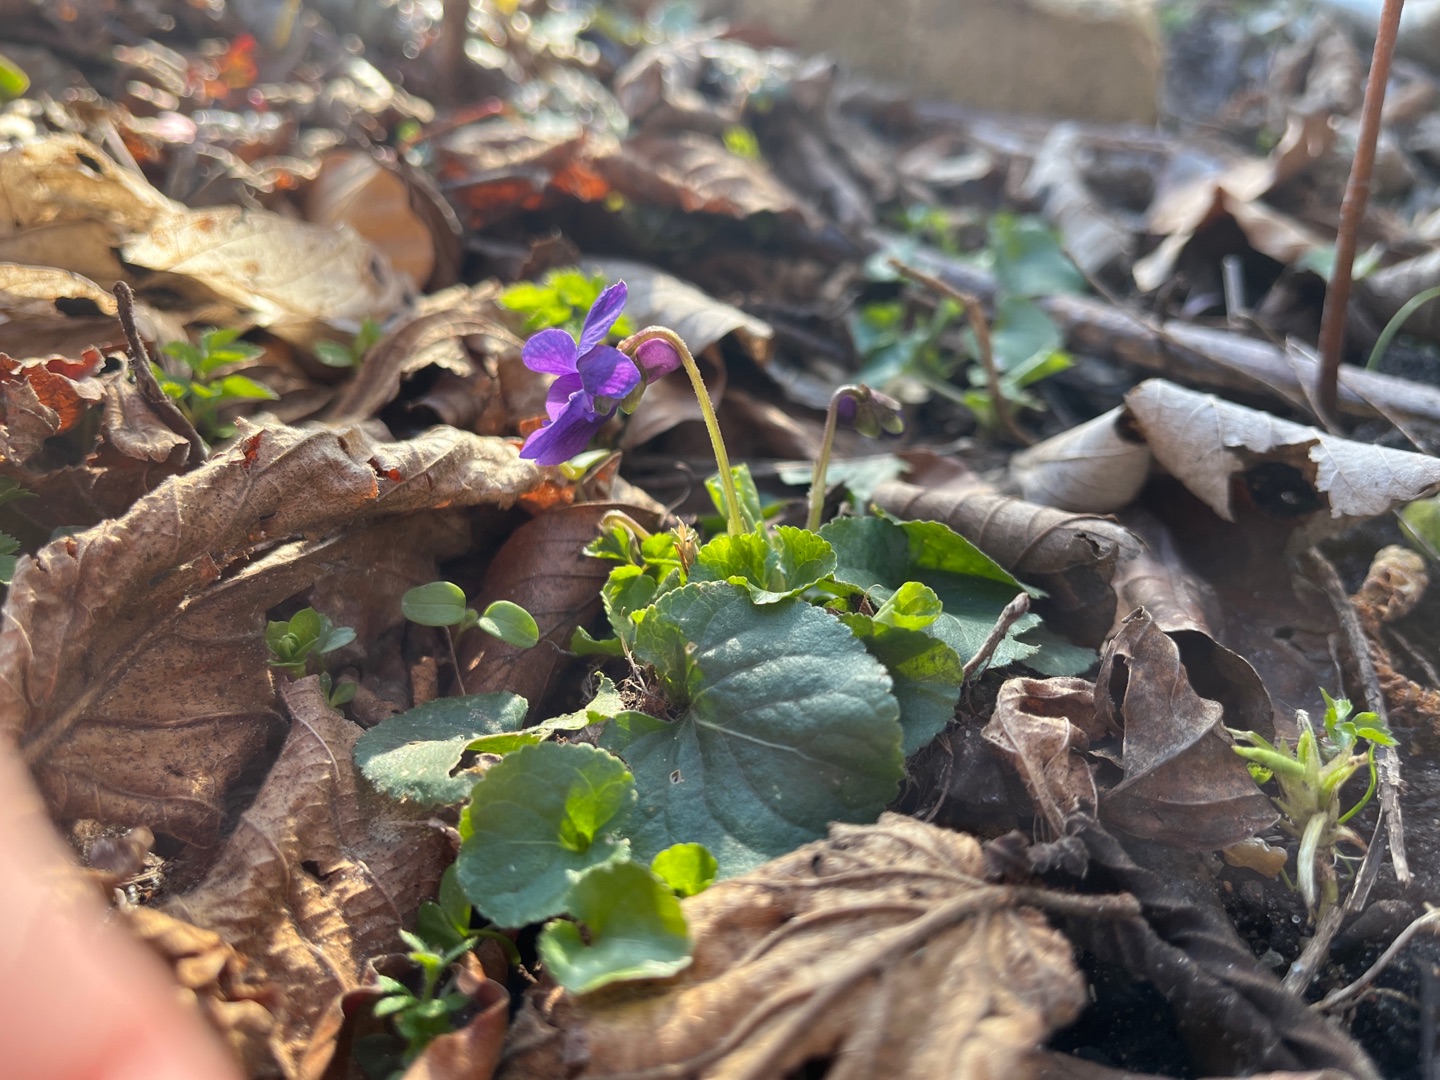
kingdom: Plantae
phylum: Tracheophyta
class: Magnoliopsida
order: Malpighiales
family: Violaceae
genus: Viola
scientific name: Viola odorata
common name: Marts-viol
